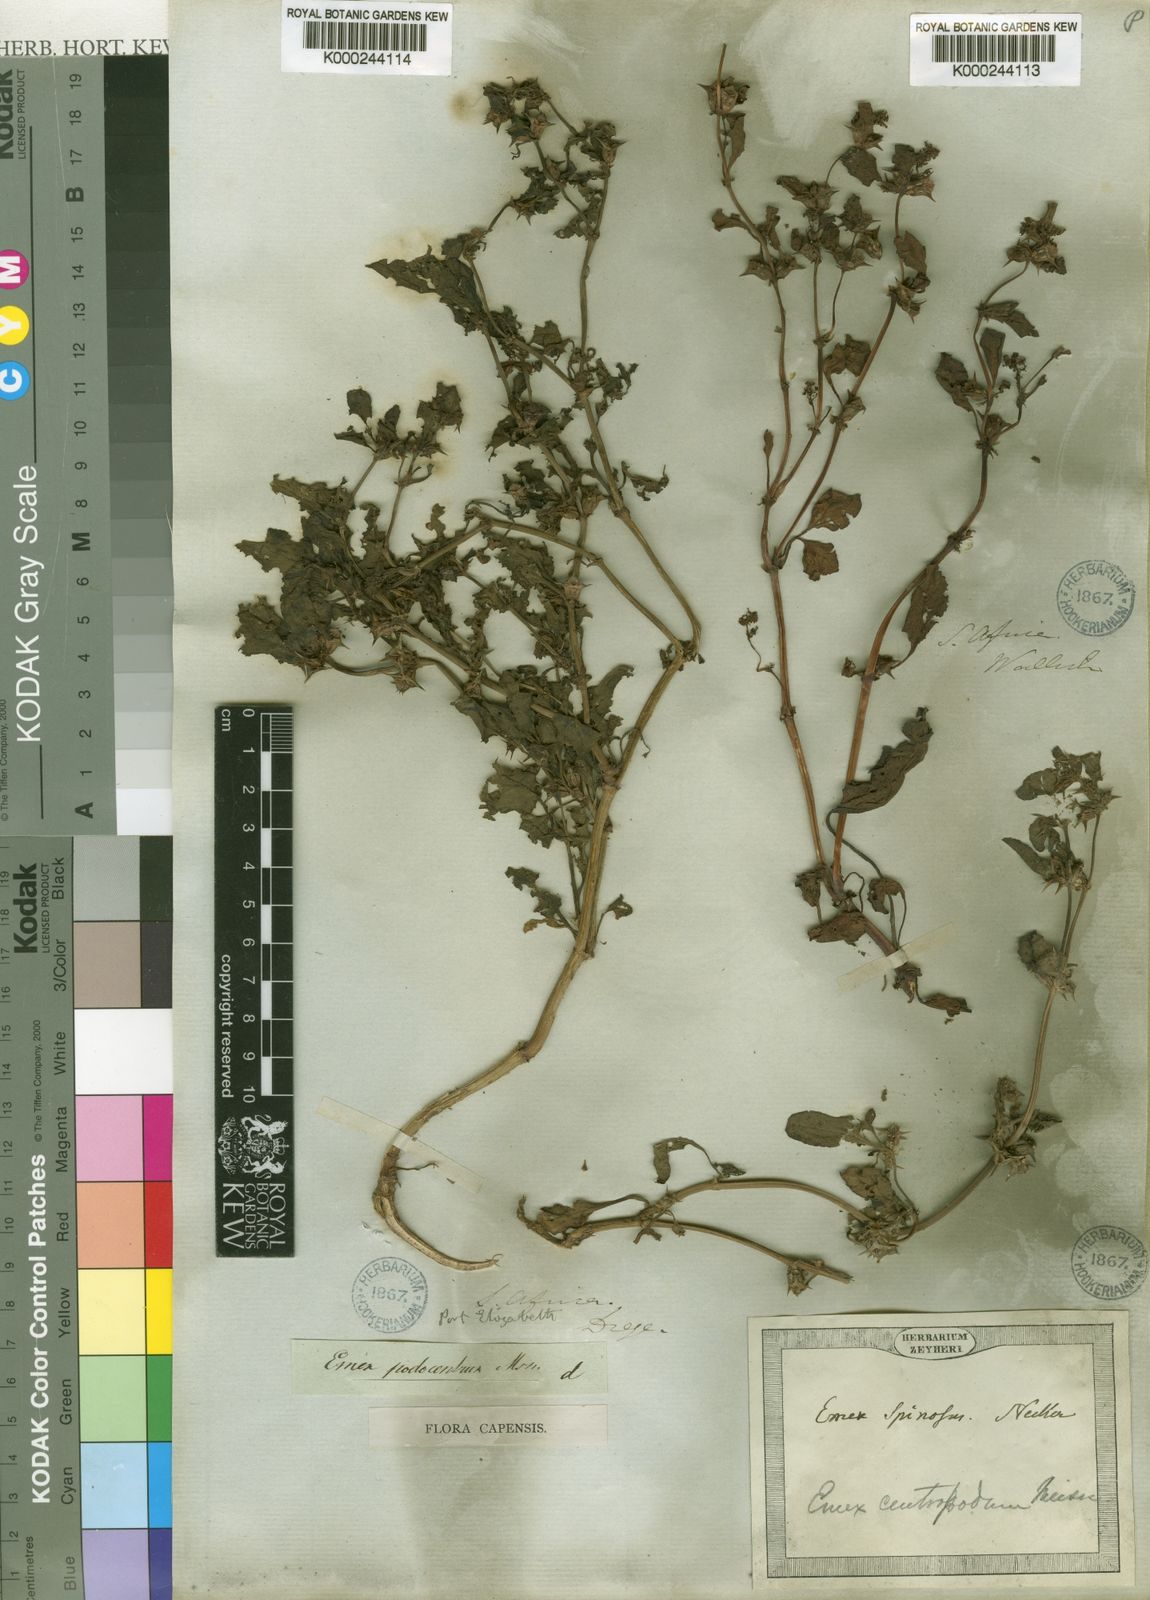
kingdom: Plantae
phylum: Tracheophyta
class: Magnoliopsida
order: Caryophyllales
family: Polygonaceae
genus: Rumex
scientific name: Rumex hypogaeus
